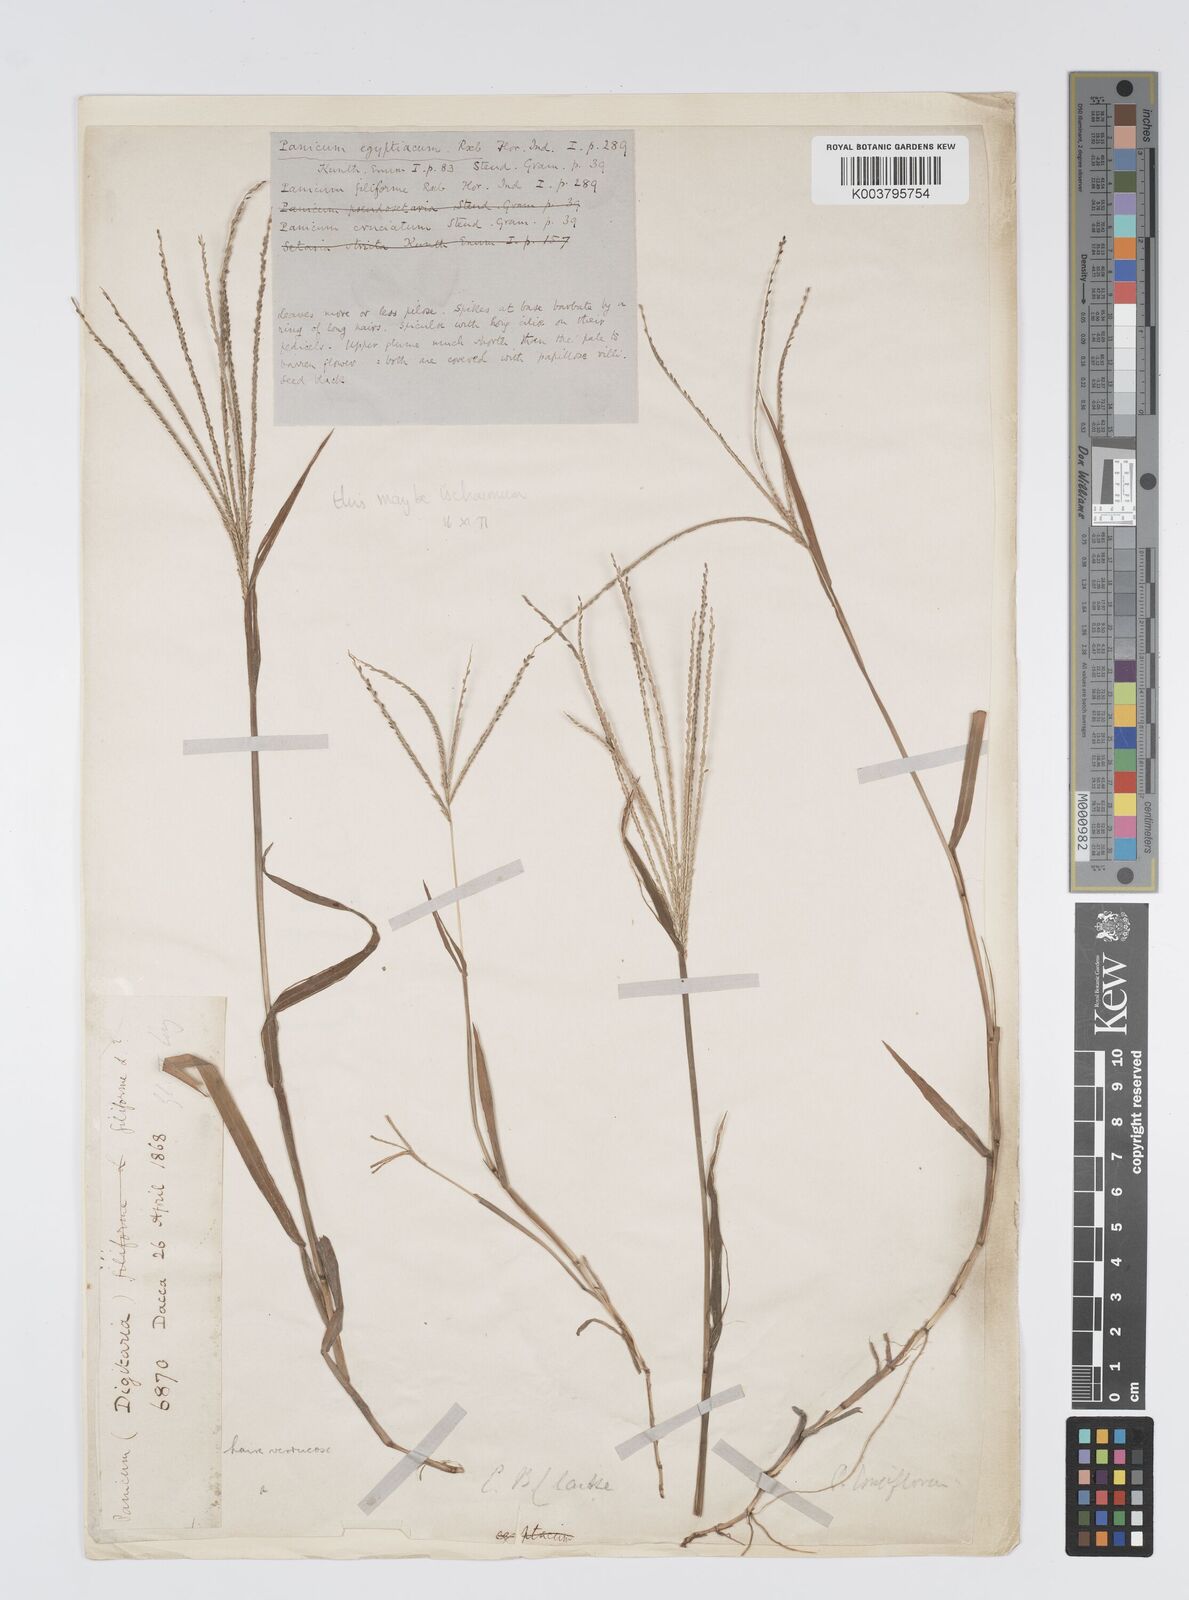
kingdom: Plantae
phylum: Tracheophyta
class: Liliopsida
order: Poales
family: Poaceae
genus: Digitaria
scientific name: Digitaria violascens
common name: Violet crabgrass
